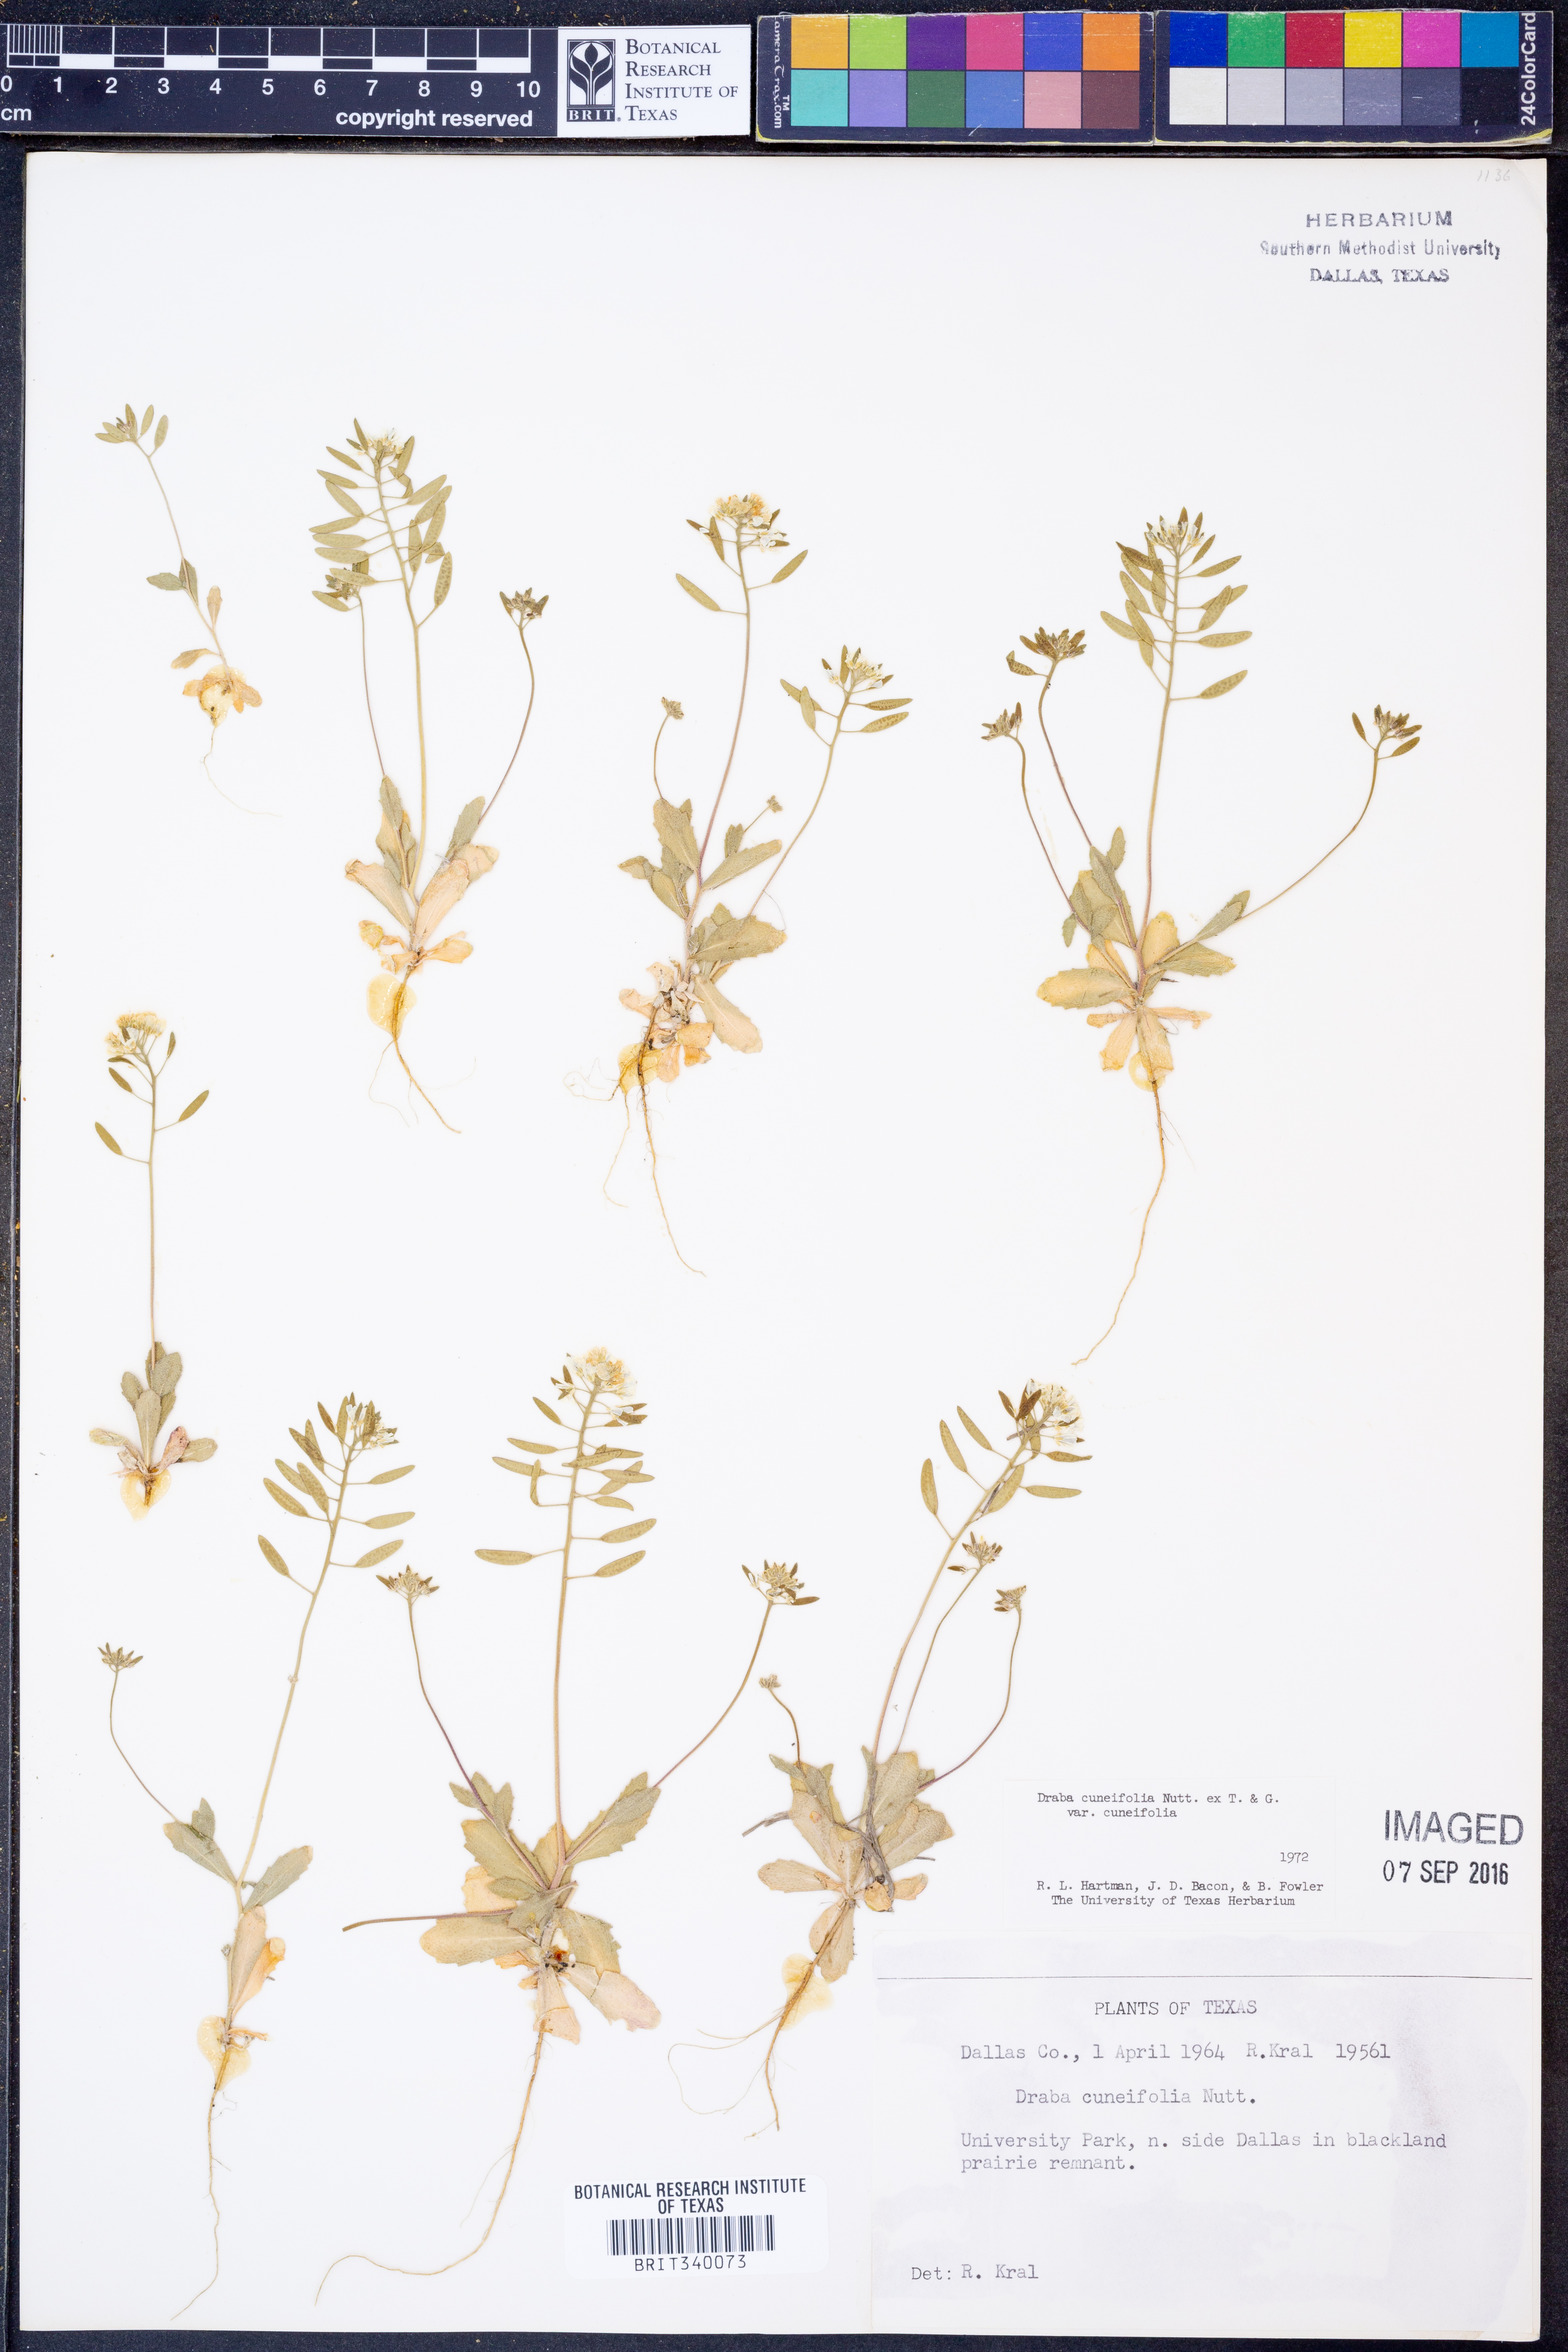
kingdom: Plantae
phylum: Tracheophyta
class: Magnoliopsida
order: Brassicales
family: Brassicaceae
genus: Tomostima
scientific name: Tomostima cuneifolia
